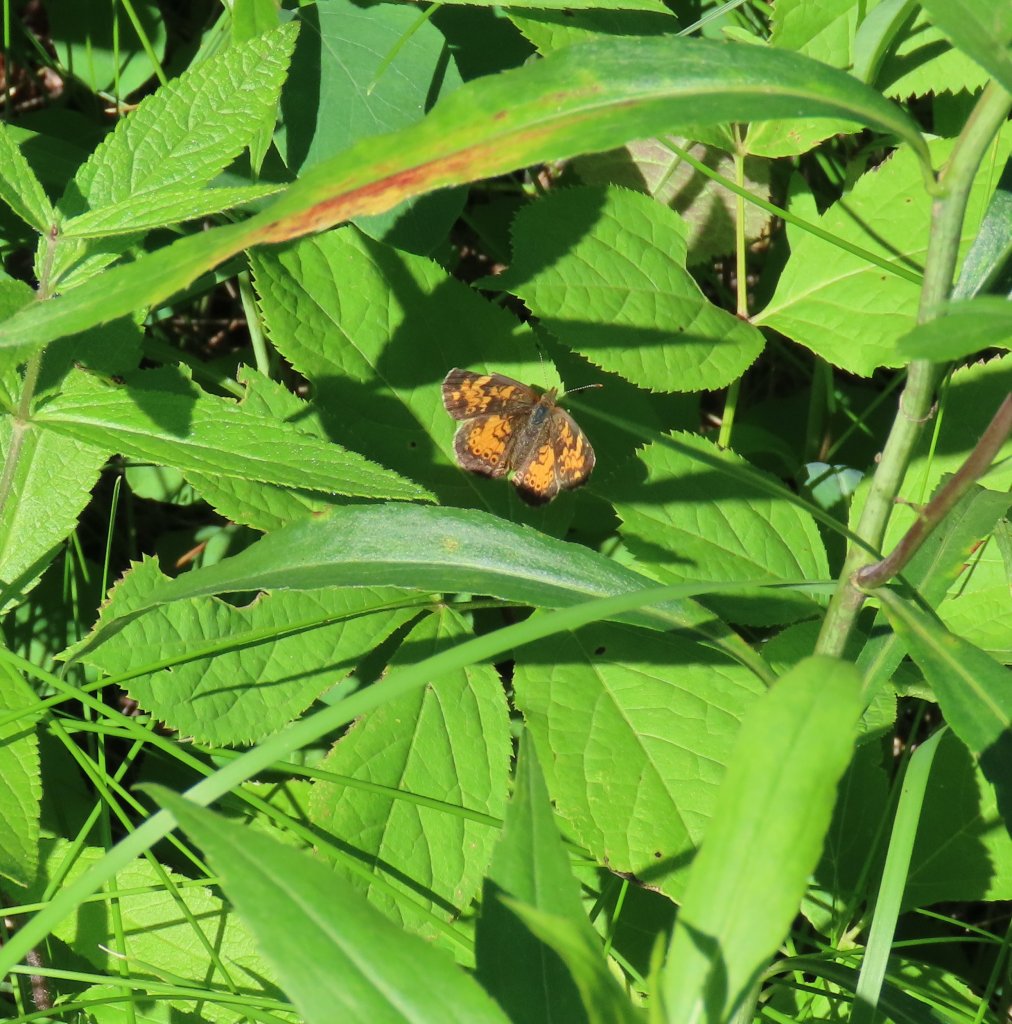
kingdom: Animalia
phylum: Arthropoda
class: Insecta
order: Lepidoptera
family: Nymphalidae
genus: Phyciodes
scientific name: Phyciodes tharos
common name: Northern Crescent
